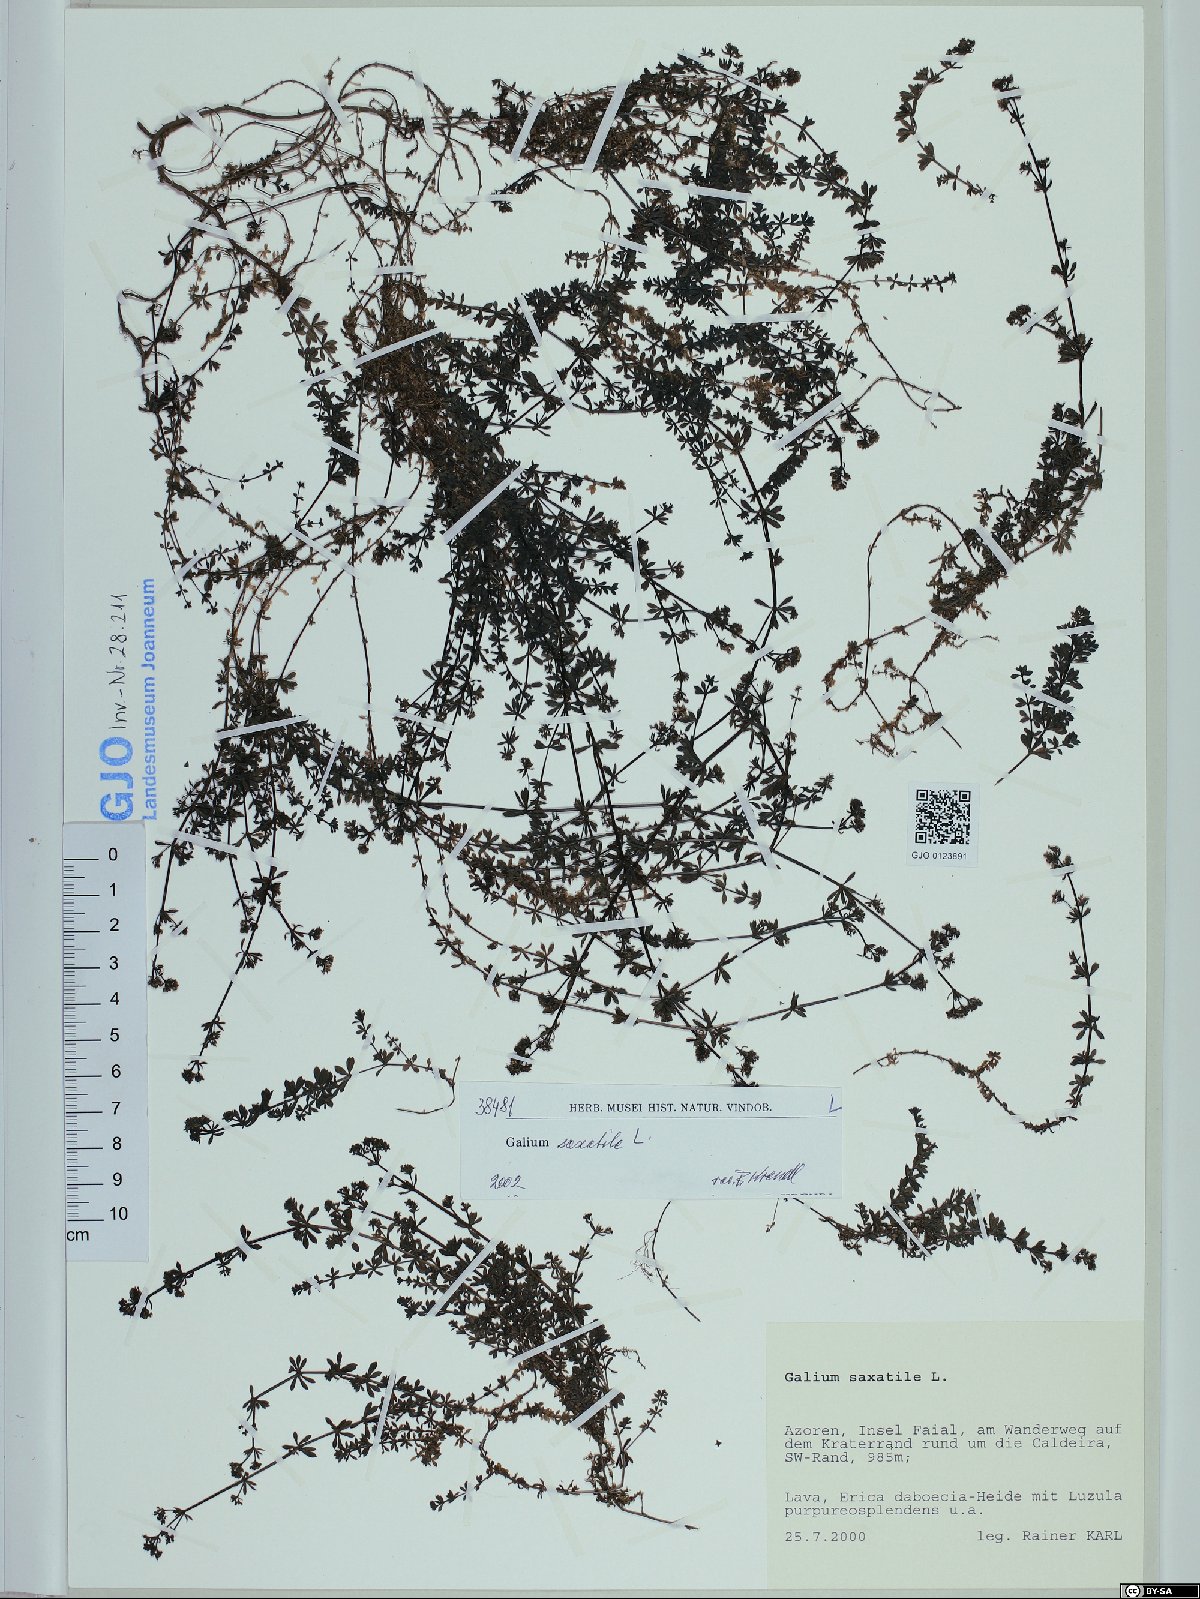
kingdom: Plantae
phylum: Tracheophyta
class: Magnoliopsida
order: Gentianales
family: Rubiaceae
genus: Galium
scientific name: Galium saxatile
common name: Heath bedstraw
